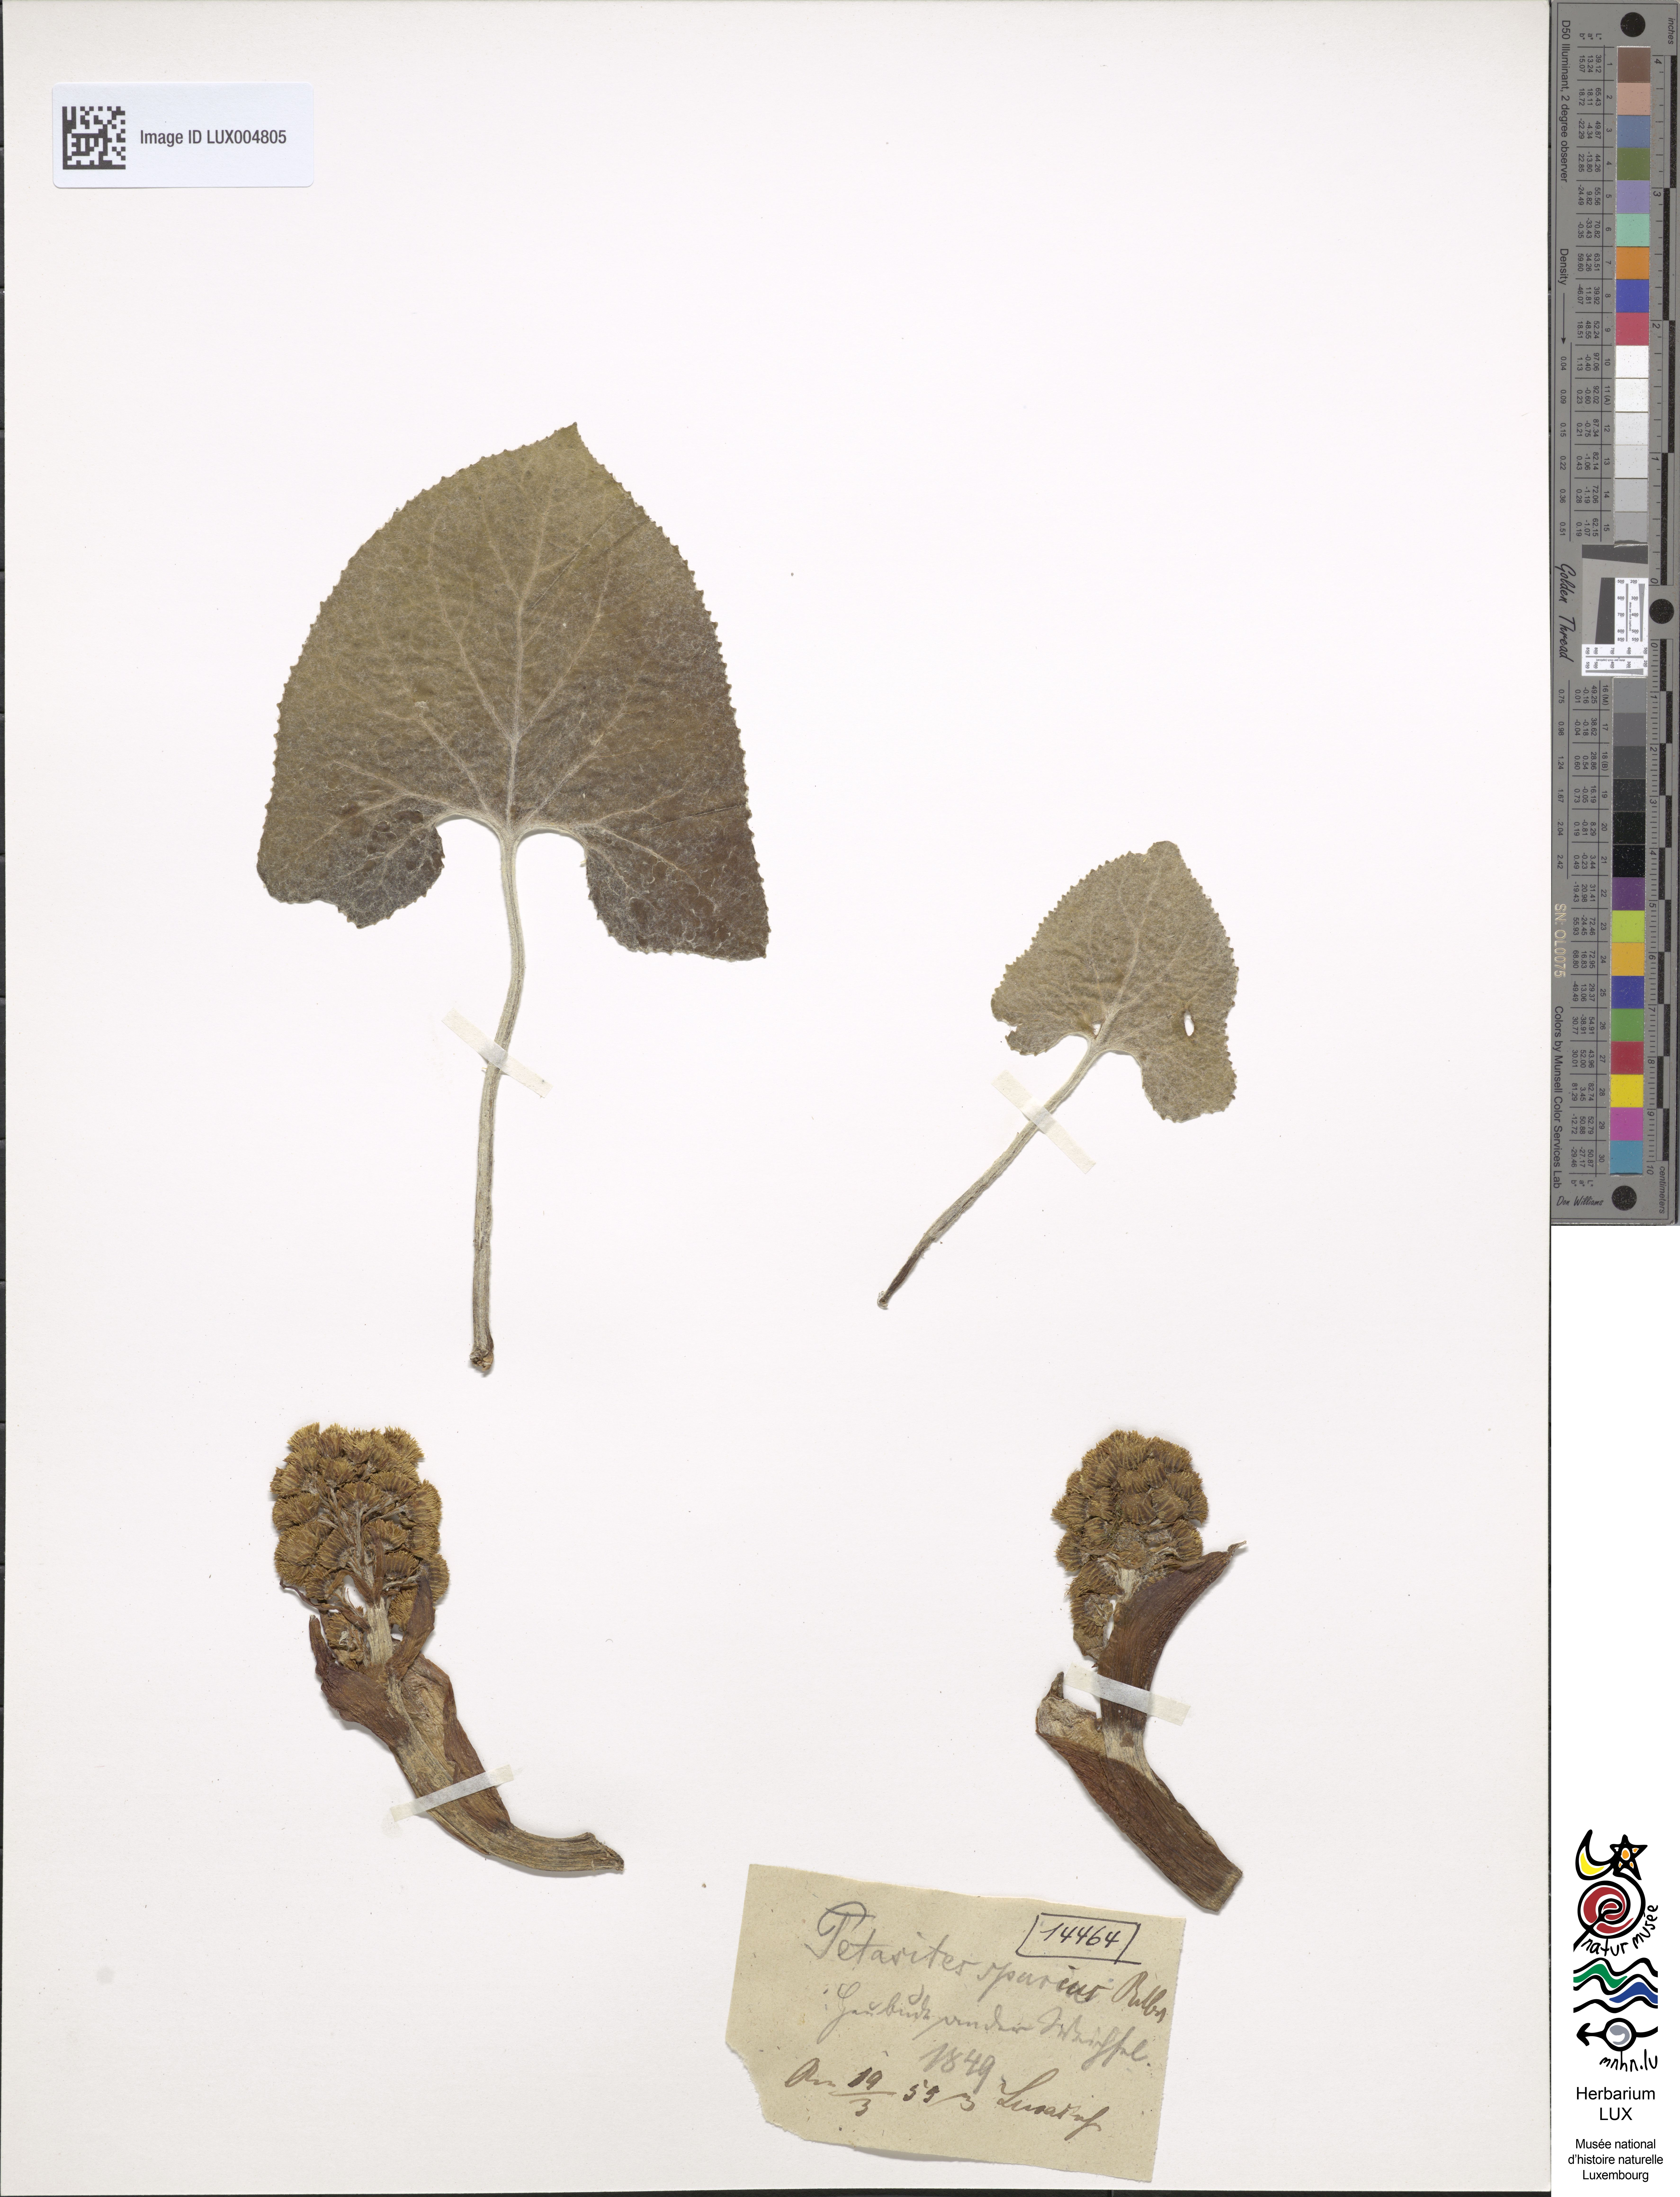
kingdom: Plantae
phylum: Tracheophyta
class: Magnoliopsida
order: Asterales
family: Asteraceae
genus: Petasites
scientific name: Petasites spurius
